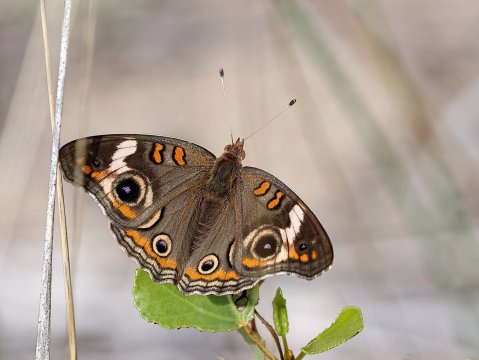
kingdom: Animalia
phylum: Arthropoda
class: Insecta
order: Lepidoptera
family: Nymphalidae
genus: Junonia
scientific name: Junonia coenia
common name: Common Buckeye
